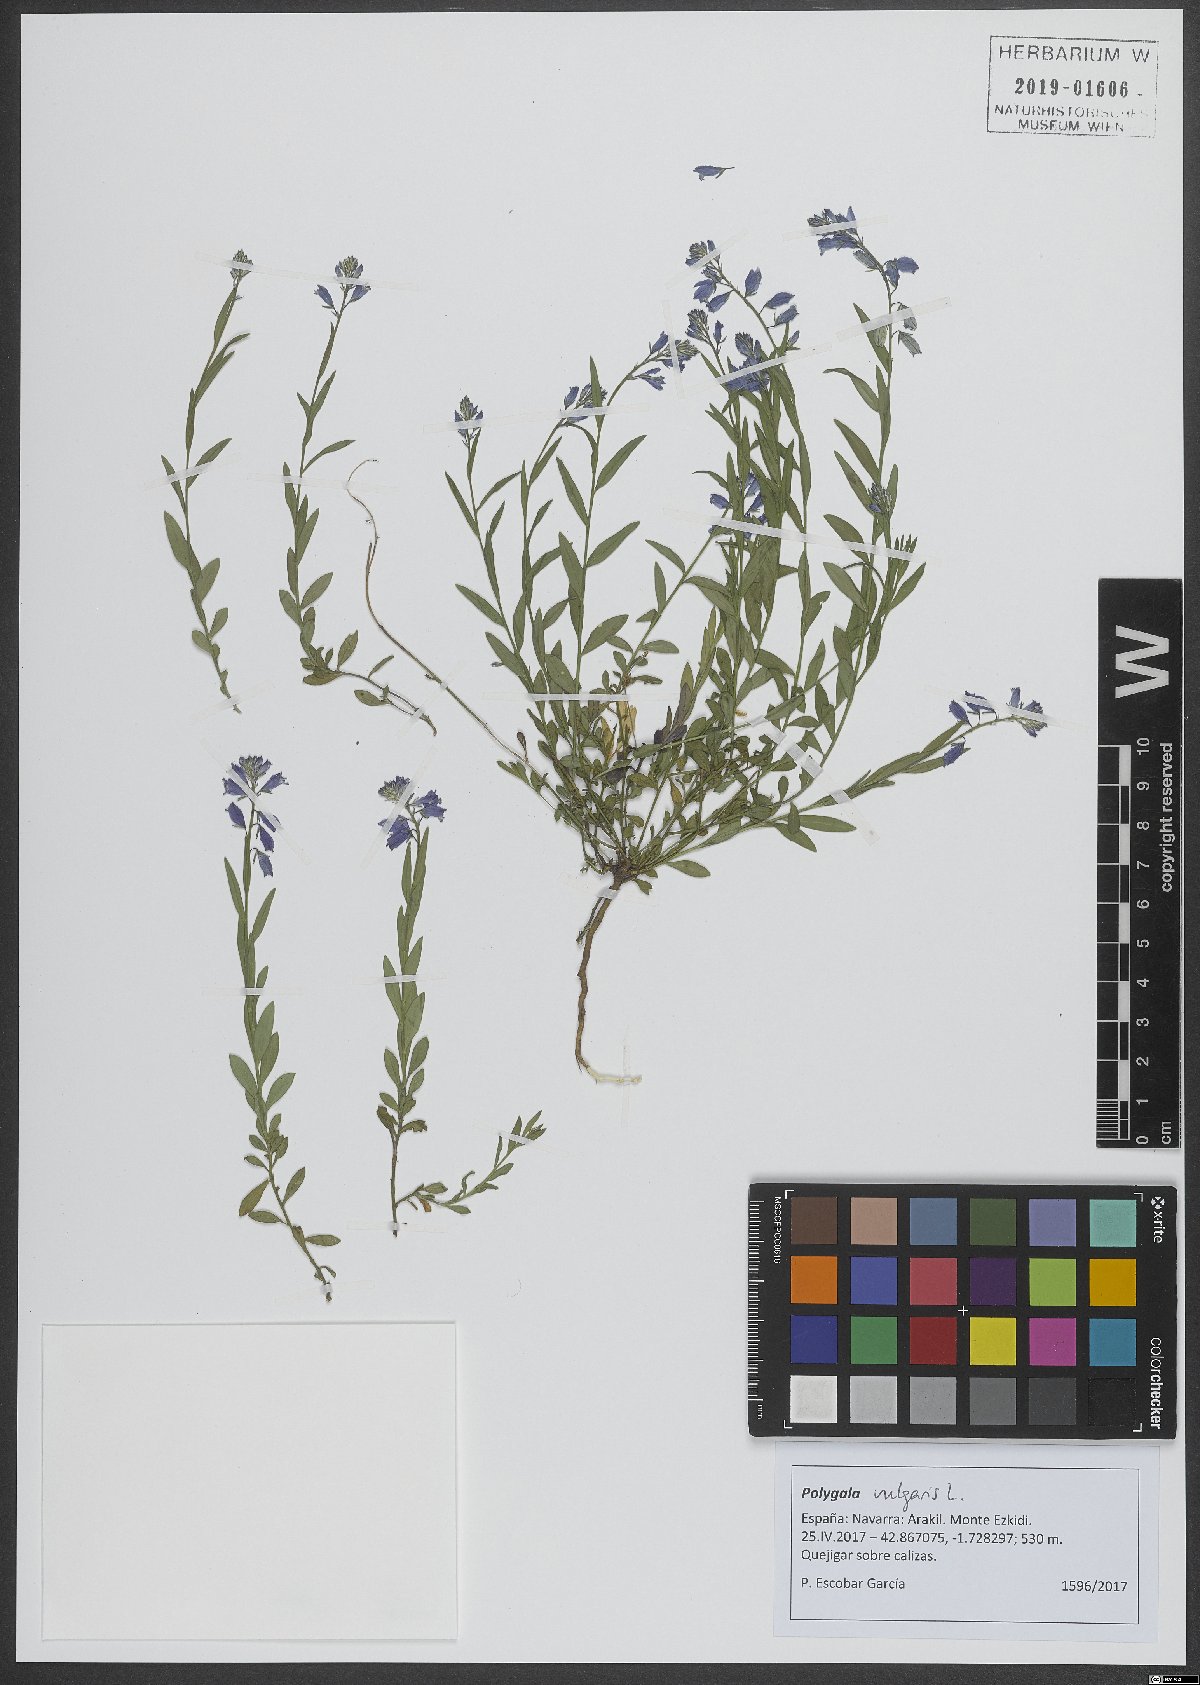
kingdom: Plantae
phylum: Tracheophyta
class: Magnoliopsida
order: Fabales
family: Polygalaceae
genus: Polygala
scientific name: Polygala vulgaris
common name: Common milkwort
